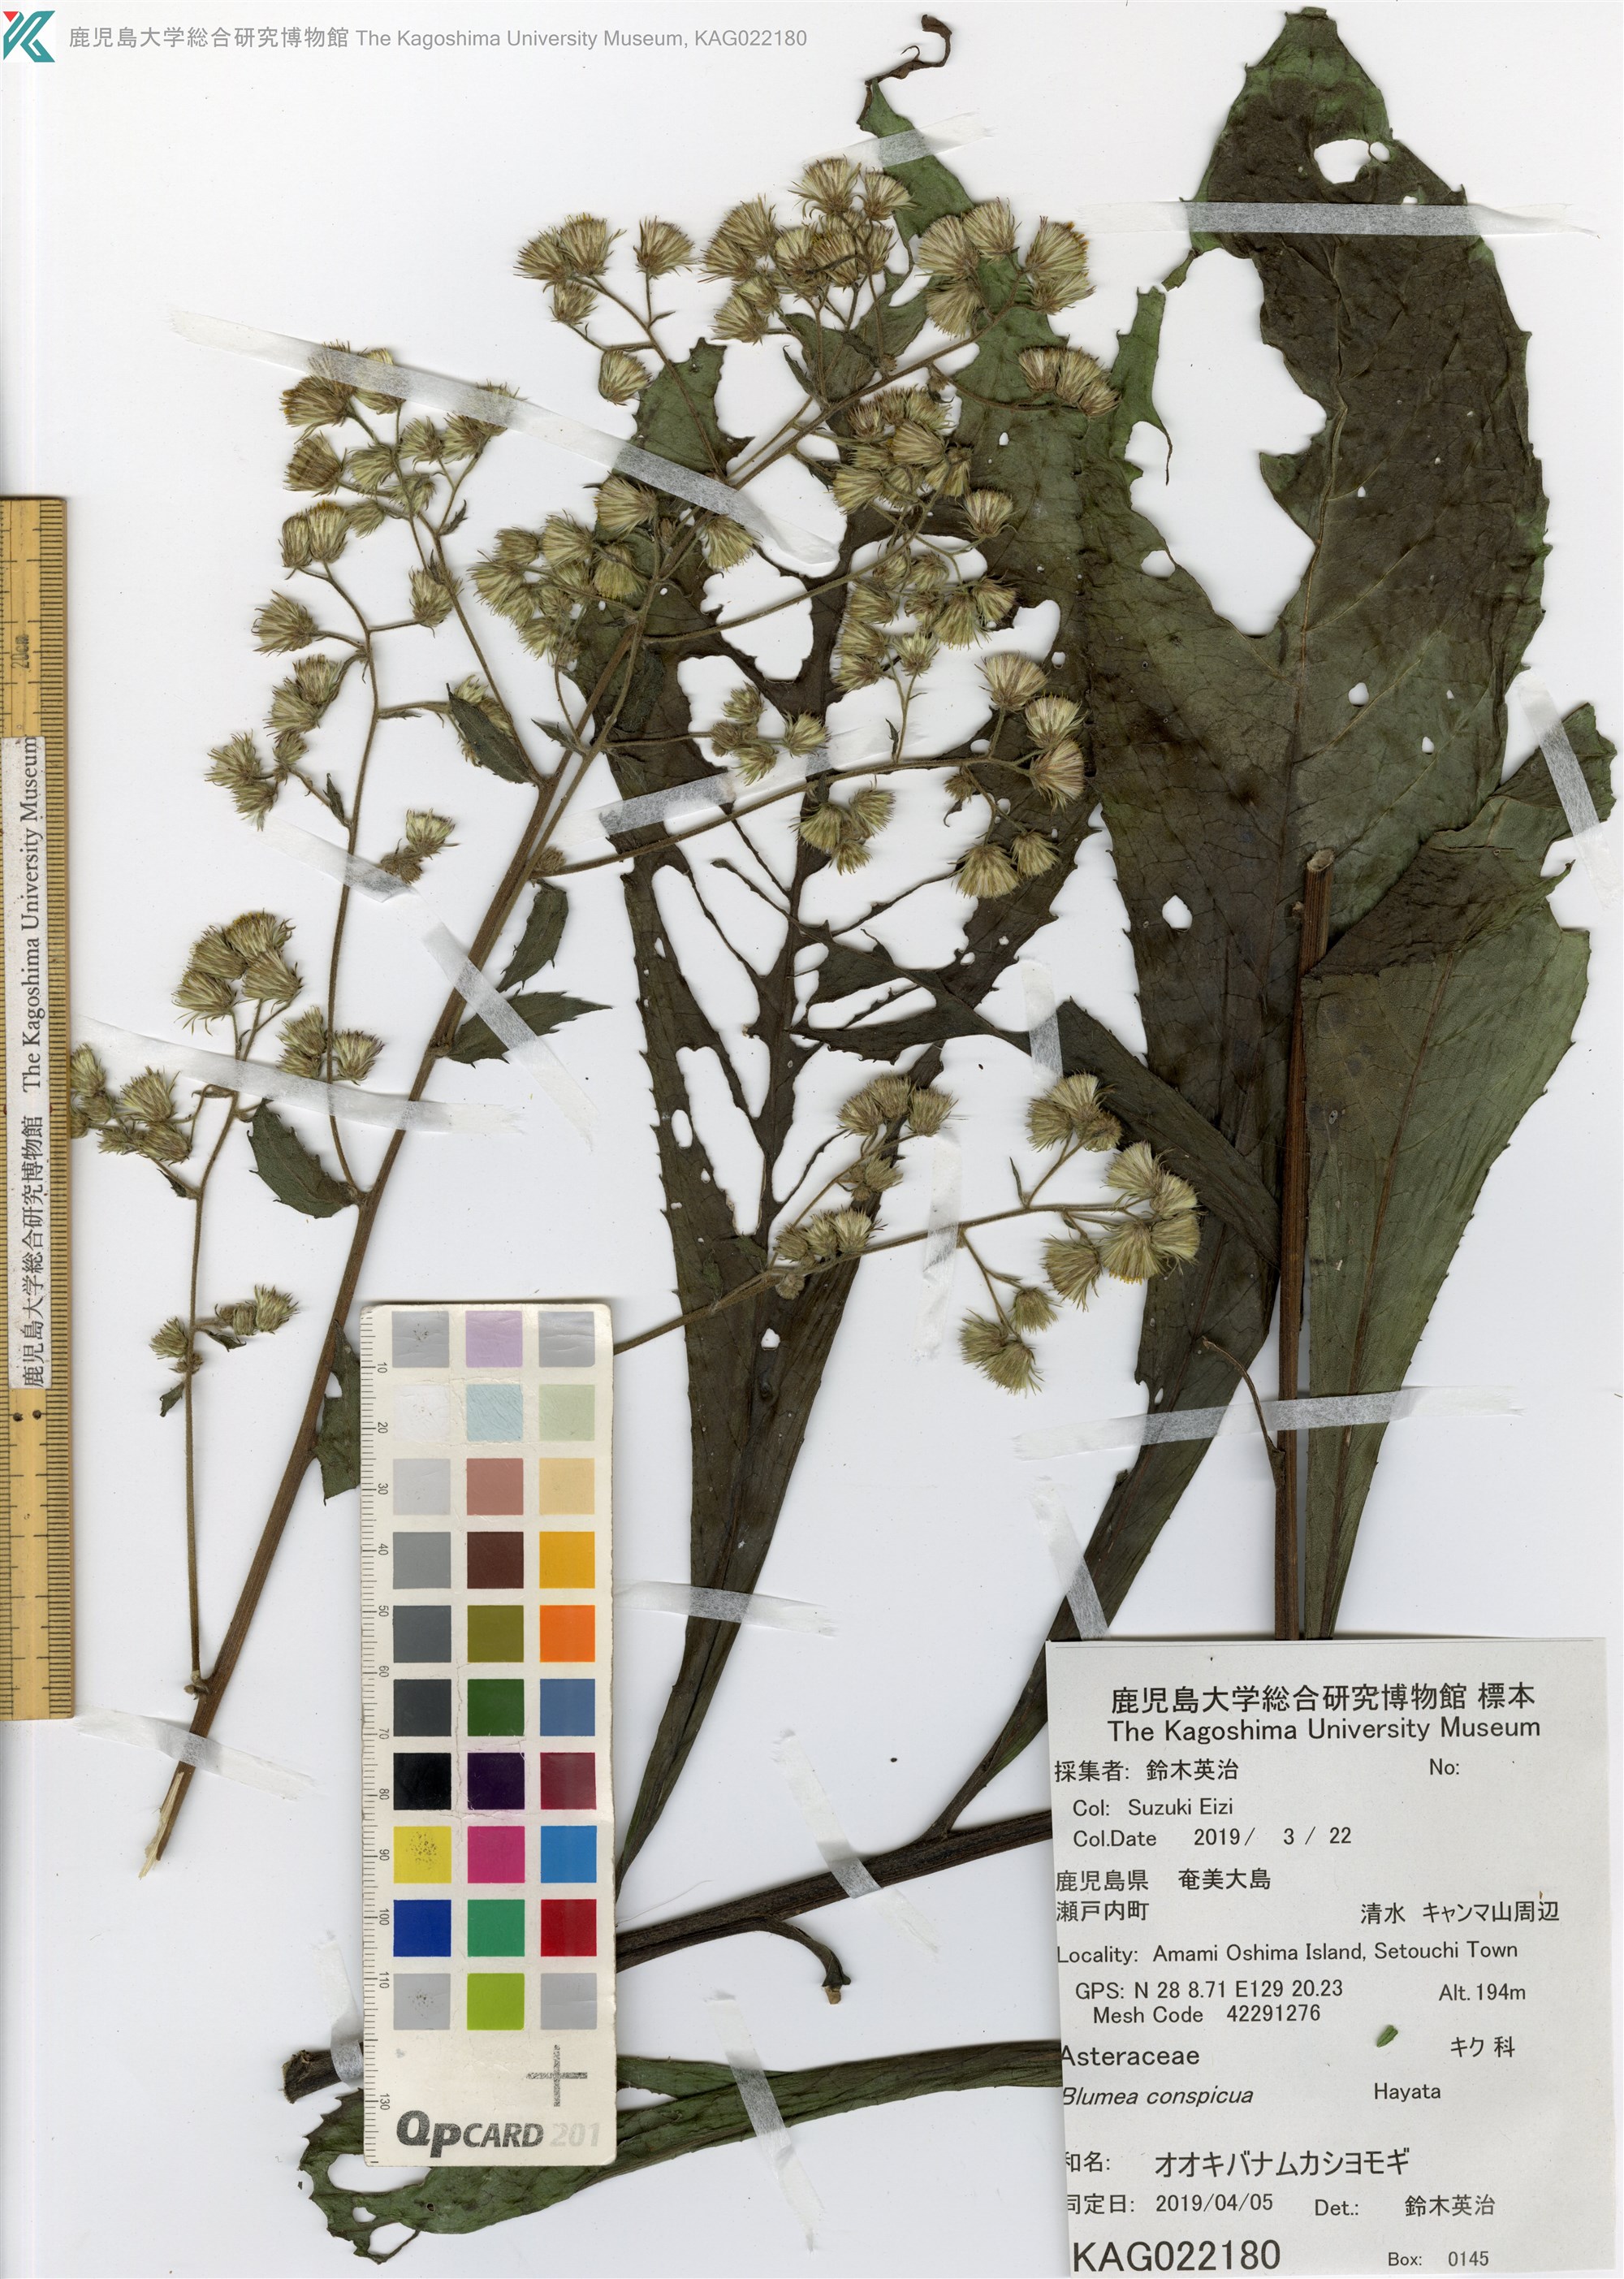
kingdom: Plantae
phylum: Tracheophyta
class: Magnoliopsida
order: Asterales
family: Asteraceae
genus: Blumea
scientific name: Blumea conspicua
